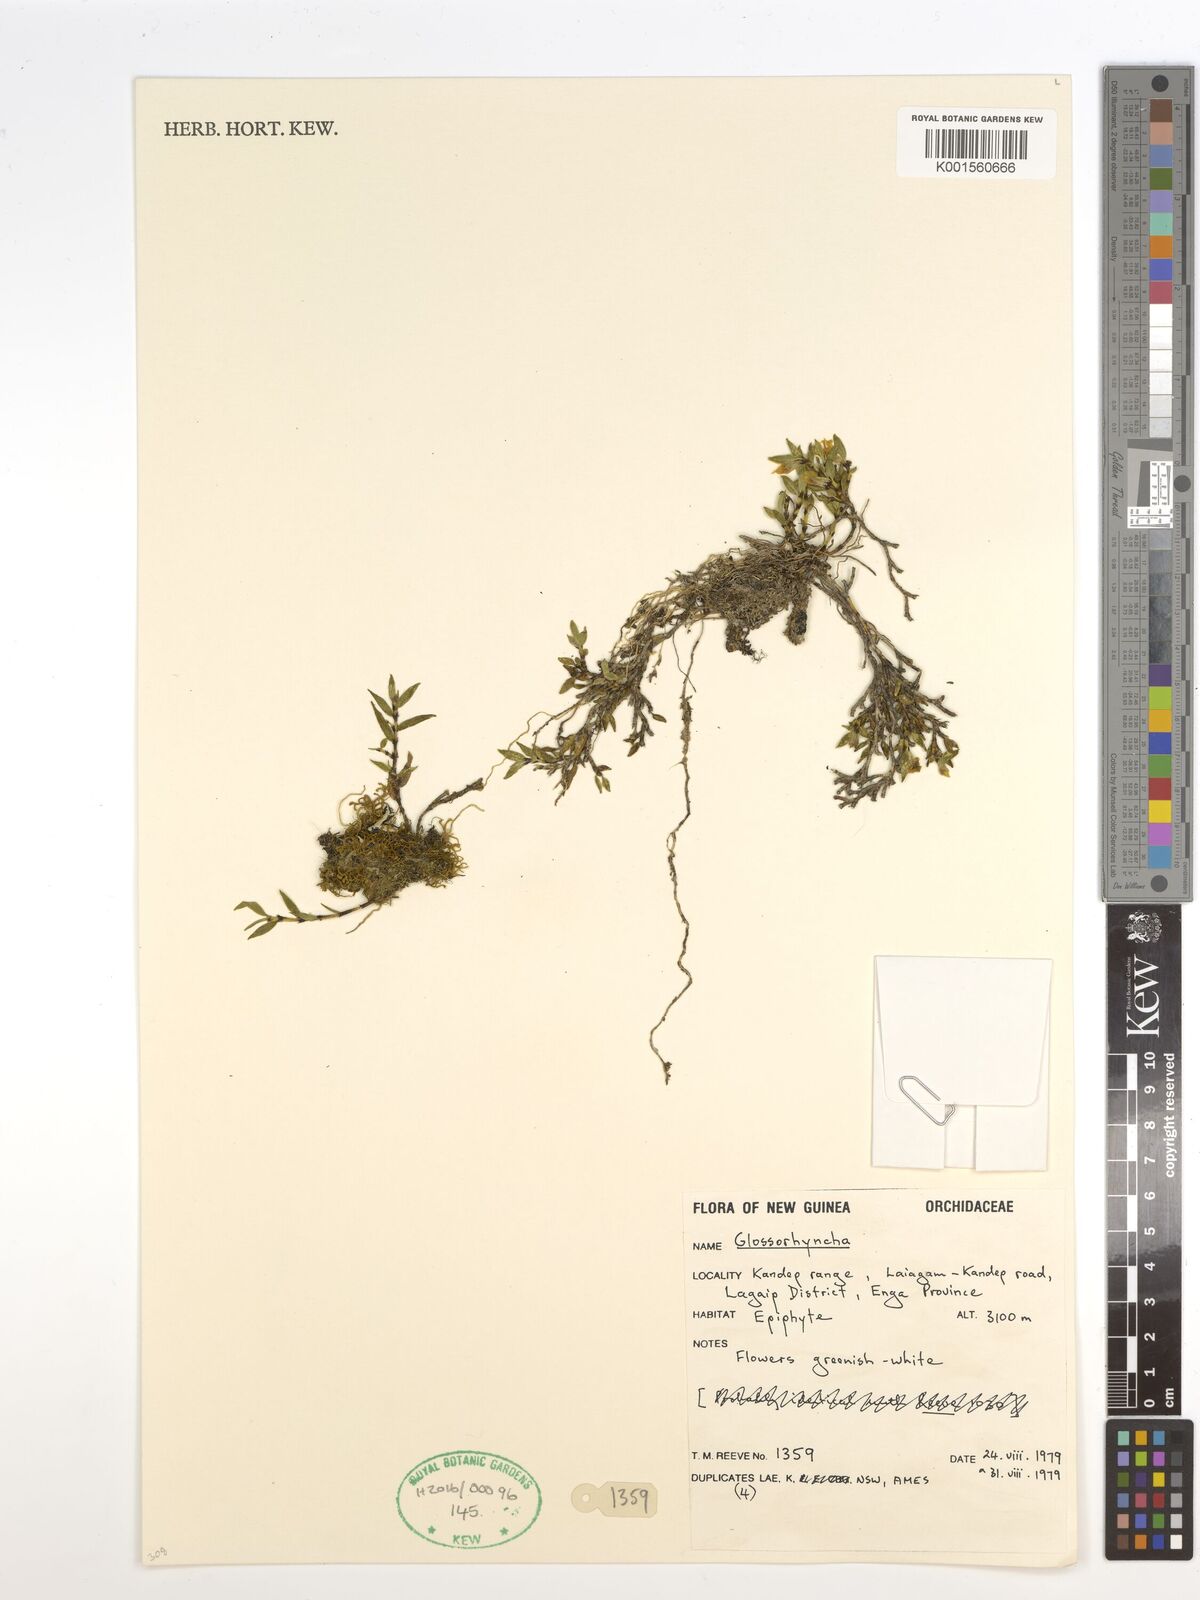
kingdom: Plantae
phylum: Tracheophyta
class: Liliopsida
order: Asparagales
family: Orchidaceae
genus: Glomera
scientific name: Glomera
